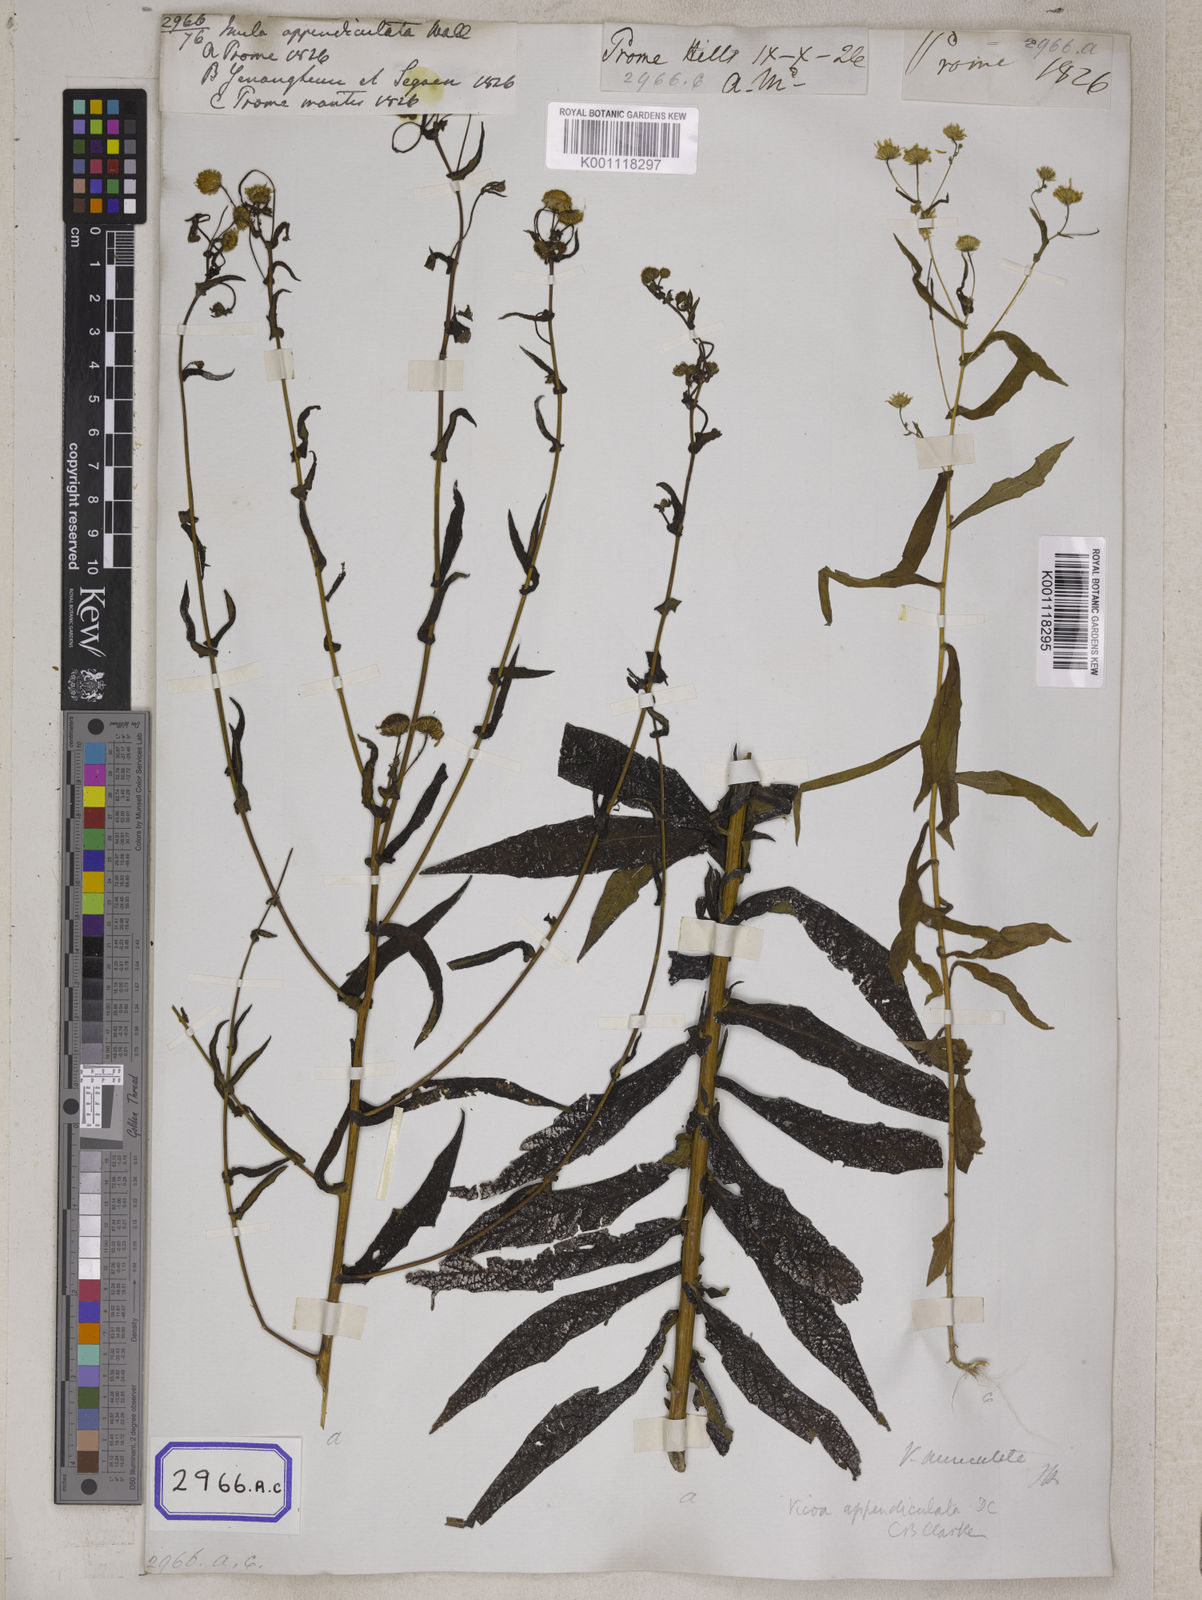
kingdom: Plantae
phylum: Tracheophyta
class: Magnoliopsida
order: Asterales
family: Asteraceae
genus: Vicoa
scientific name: Vicoa indica
